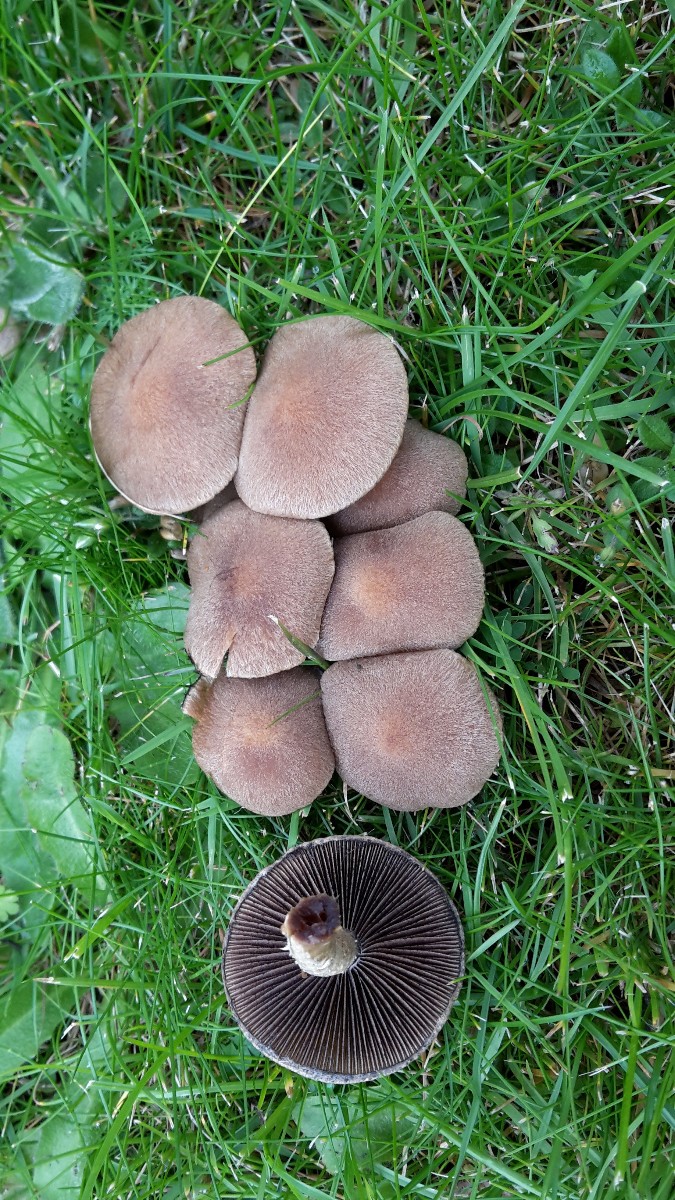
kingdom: Fungi
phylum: Basidiomycota
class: Agaricomycetes
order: Agaricales
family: Psathyrellaceae
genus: Lacrymaria
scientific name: Lacrymaria lacrymabunda
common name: grædende mørkhat
